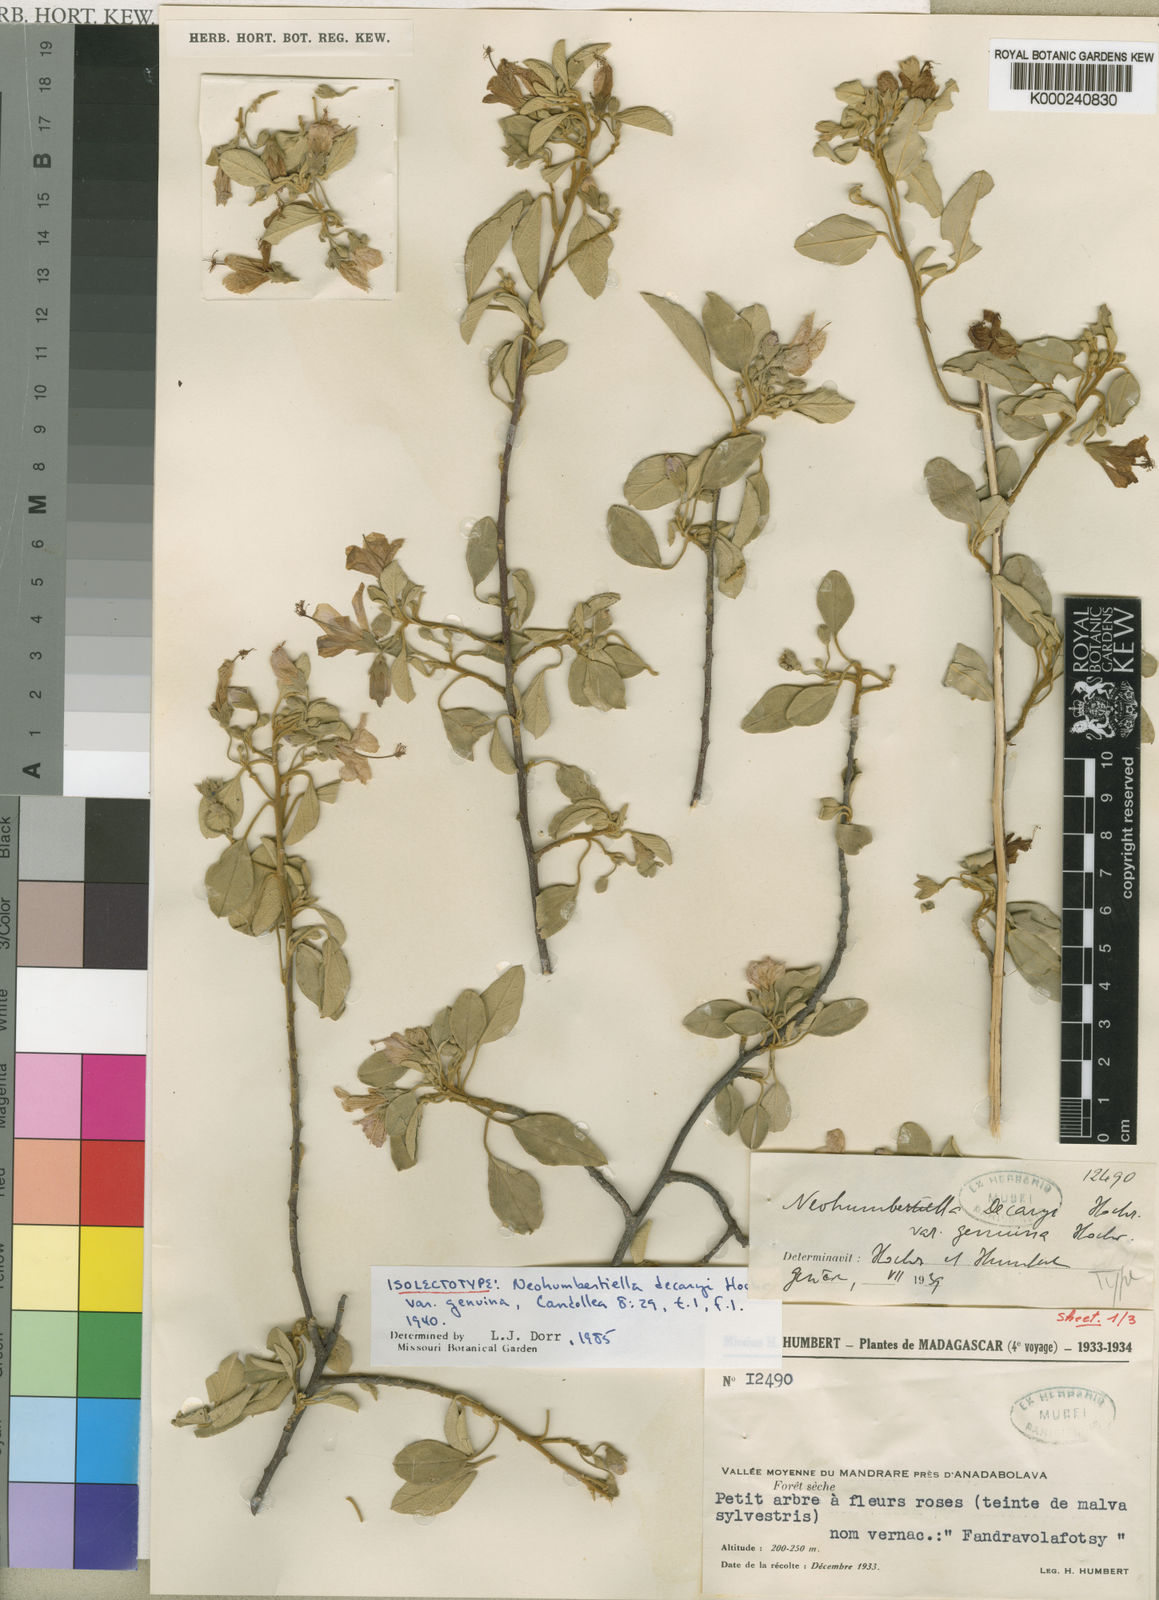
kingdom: Plantae
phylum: Tracheophyta
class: Magnoliopsida
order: Malvales
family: Malvaceae
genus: Humbertiella
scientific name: Humbertiella decaryi
